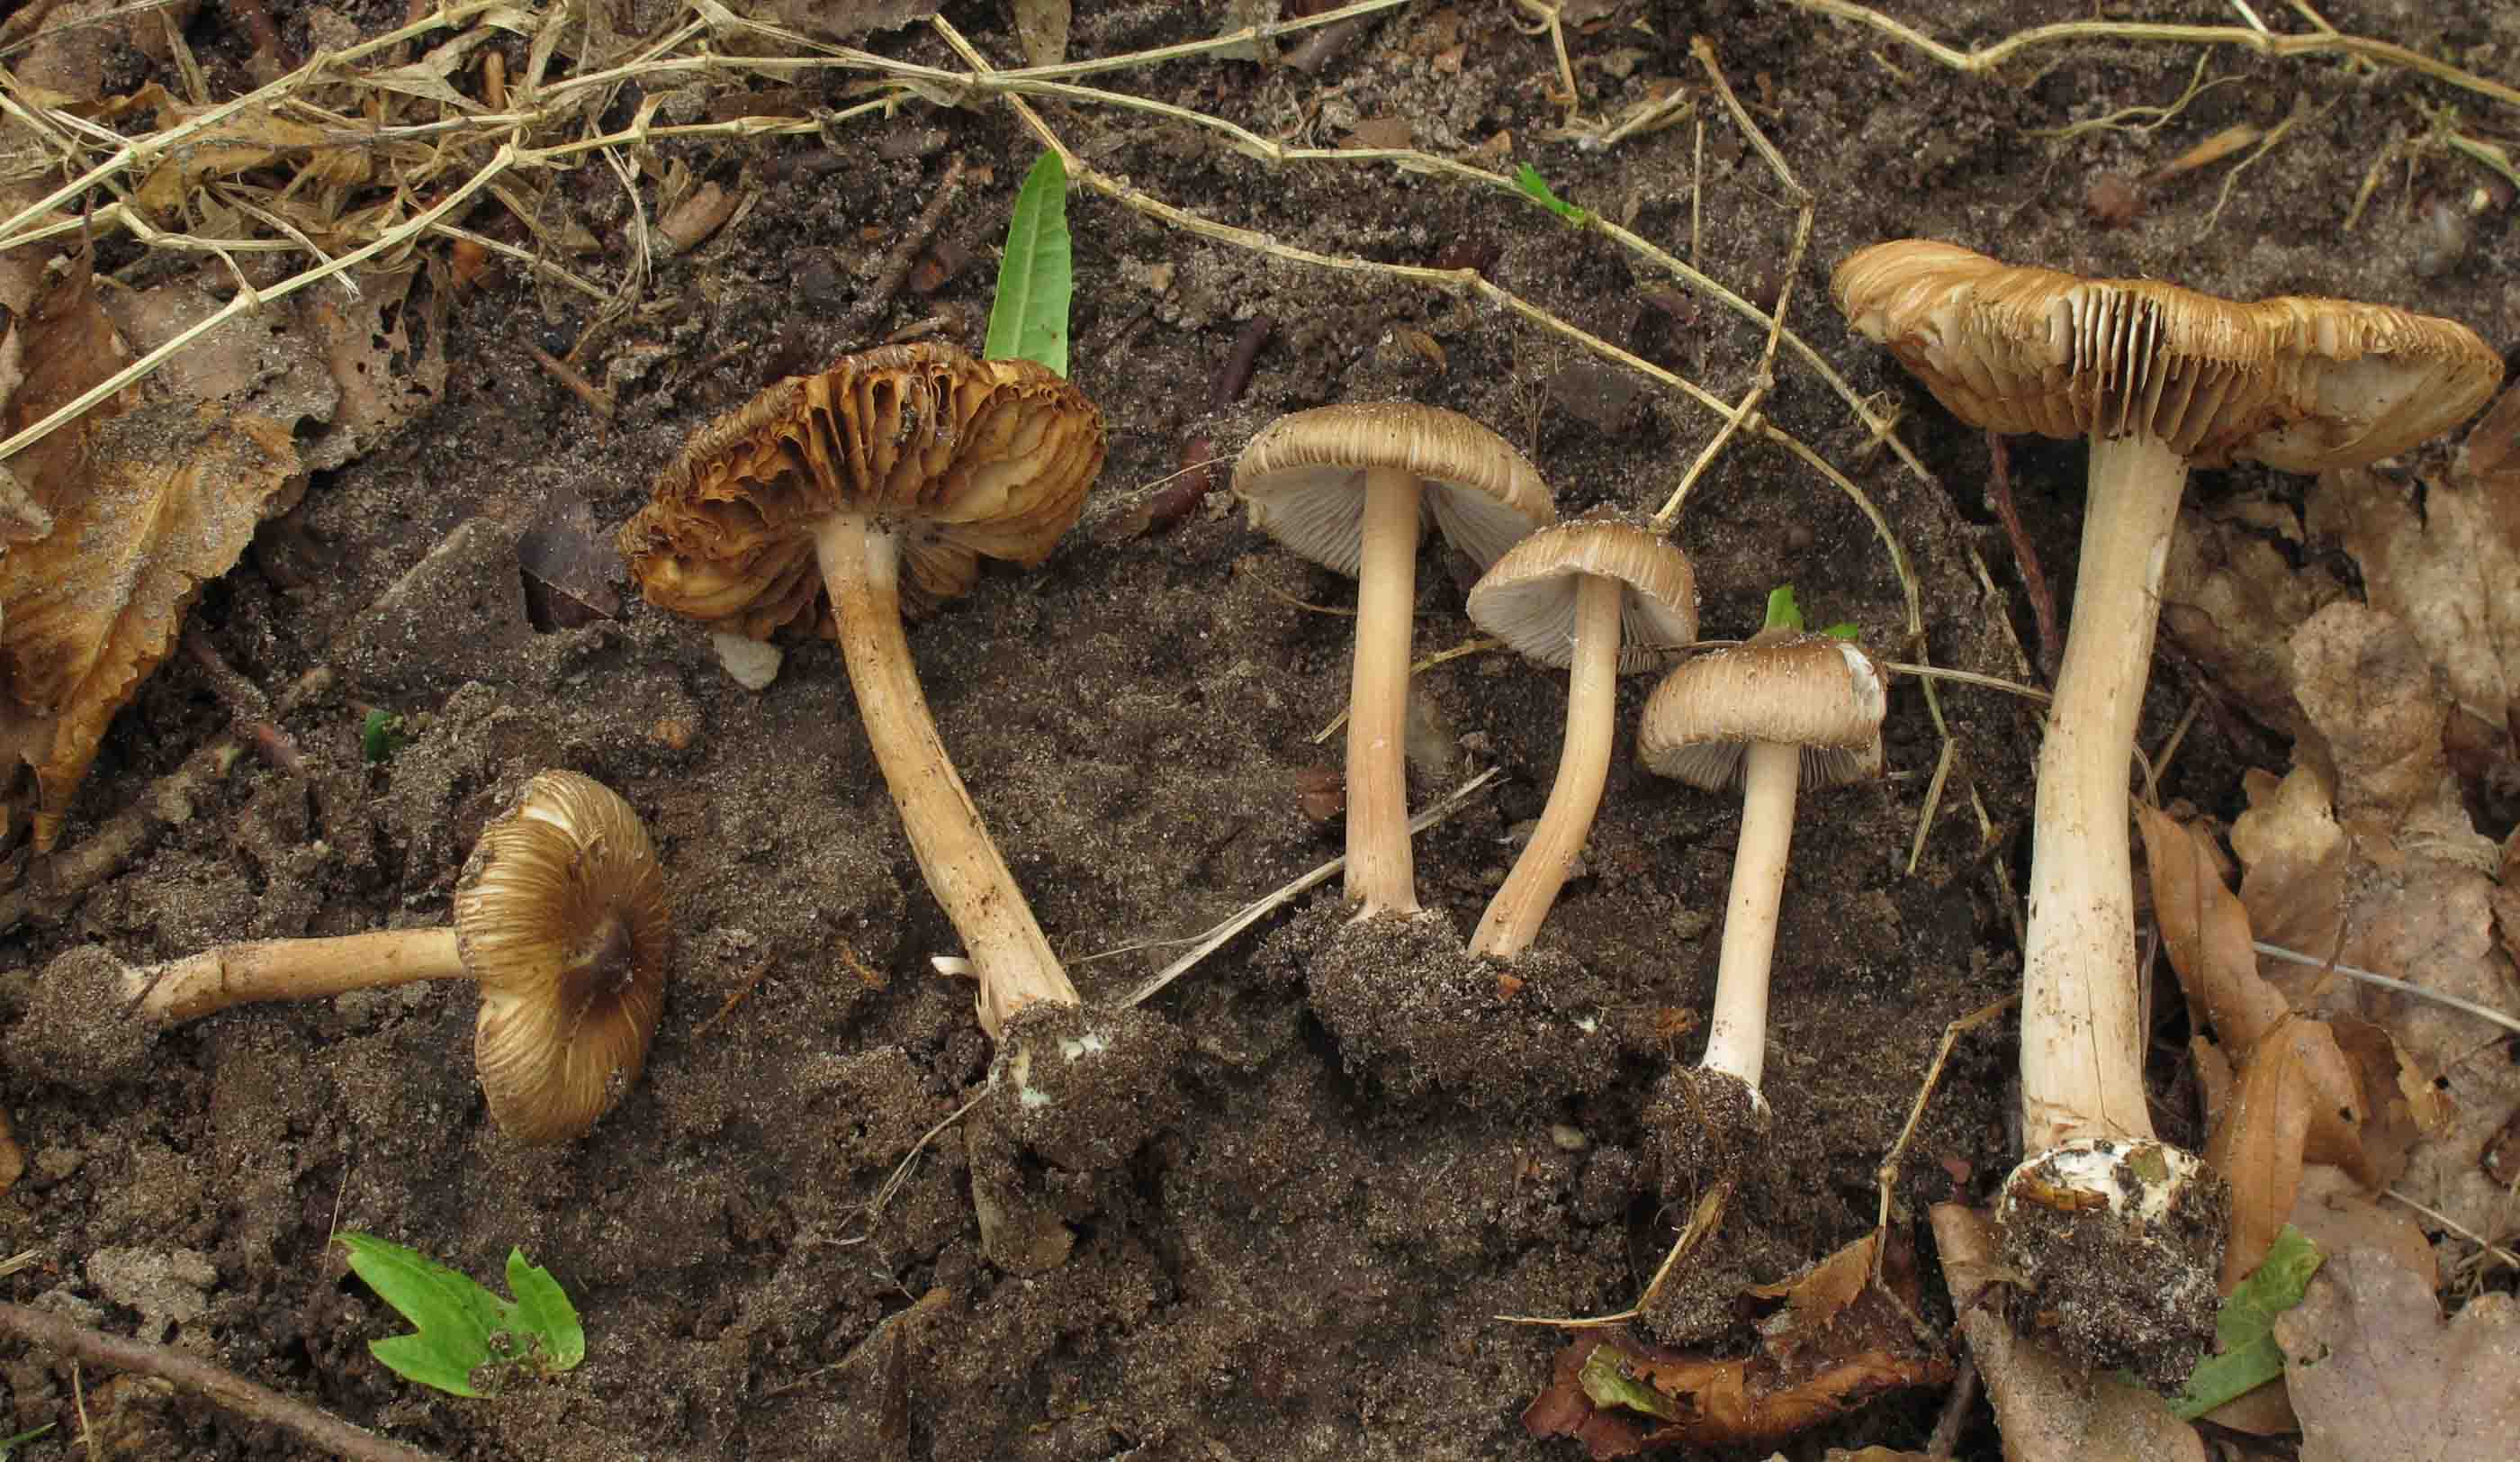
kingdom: Fungi
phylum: Basidiomycota
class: Agaricomycetes
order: Agaricales
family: Inocybaceae
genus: Inocybe
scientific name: Inocybe asterospora
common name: stjernesporet trævlhat
